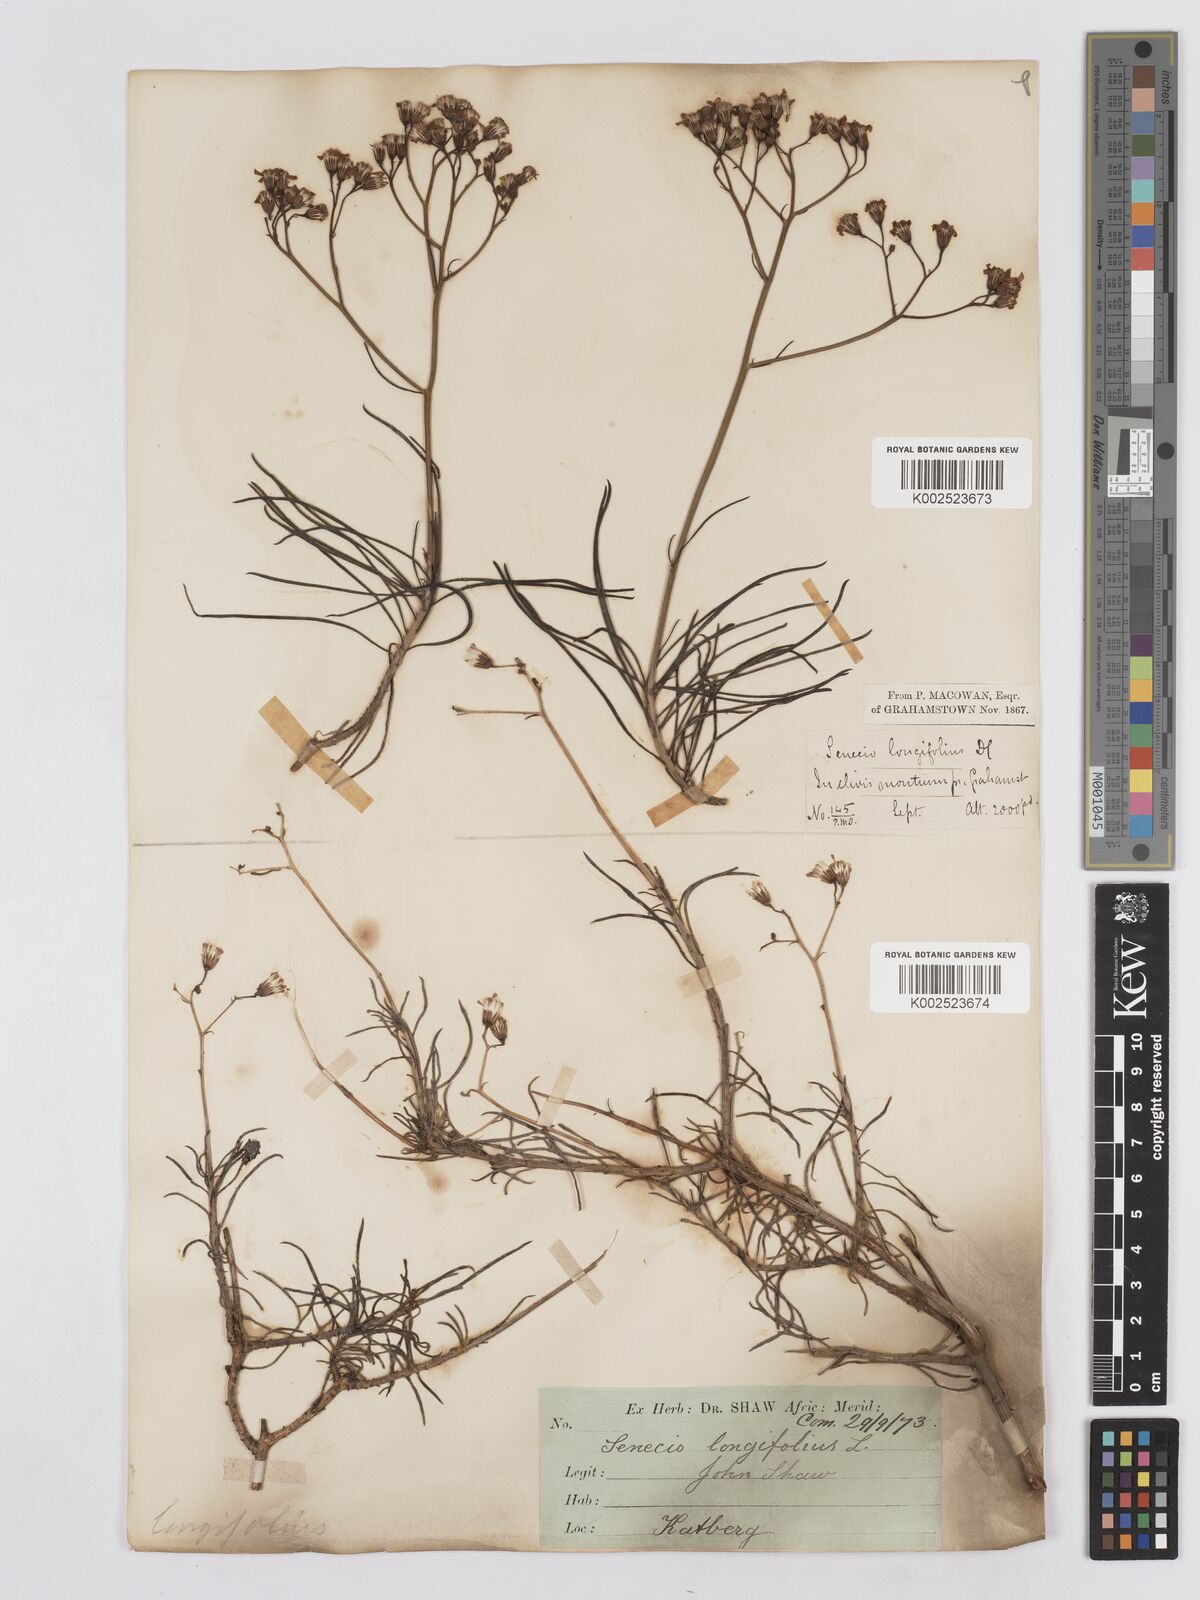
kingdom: Plantae
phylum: Tracheophyta
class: Magnoliopsida
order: Asterales
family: Asteraceae
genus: Senecio
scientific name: Senecio linifolius
